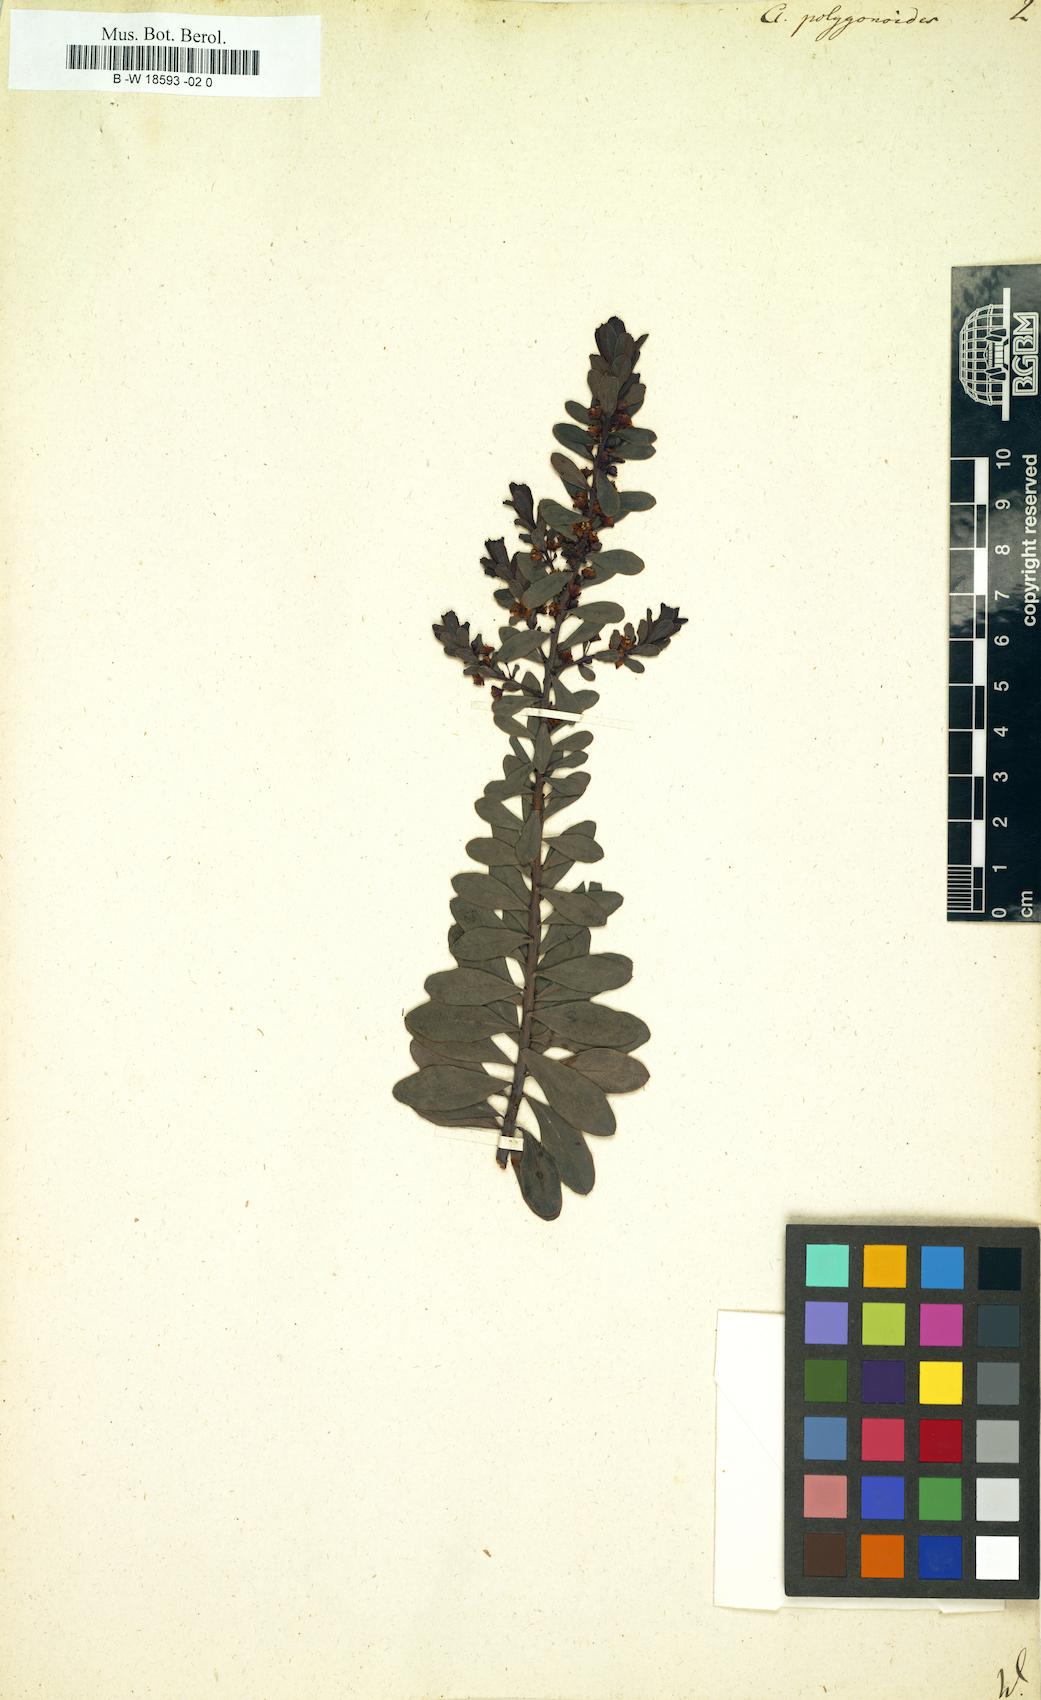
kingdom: Plantae
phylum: Tracheophyta
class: Magnoliopsida
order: Malpighiales
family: Peraceae
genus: Clutia
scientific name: Clutia
